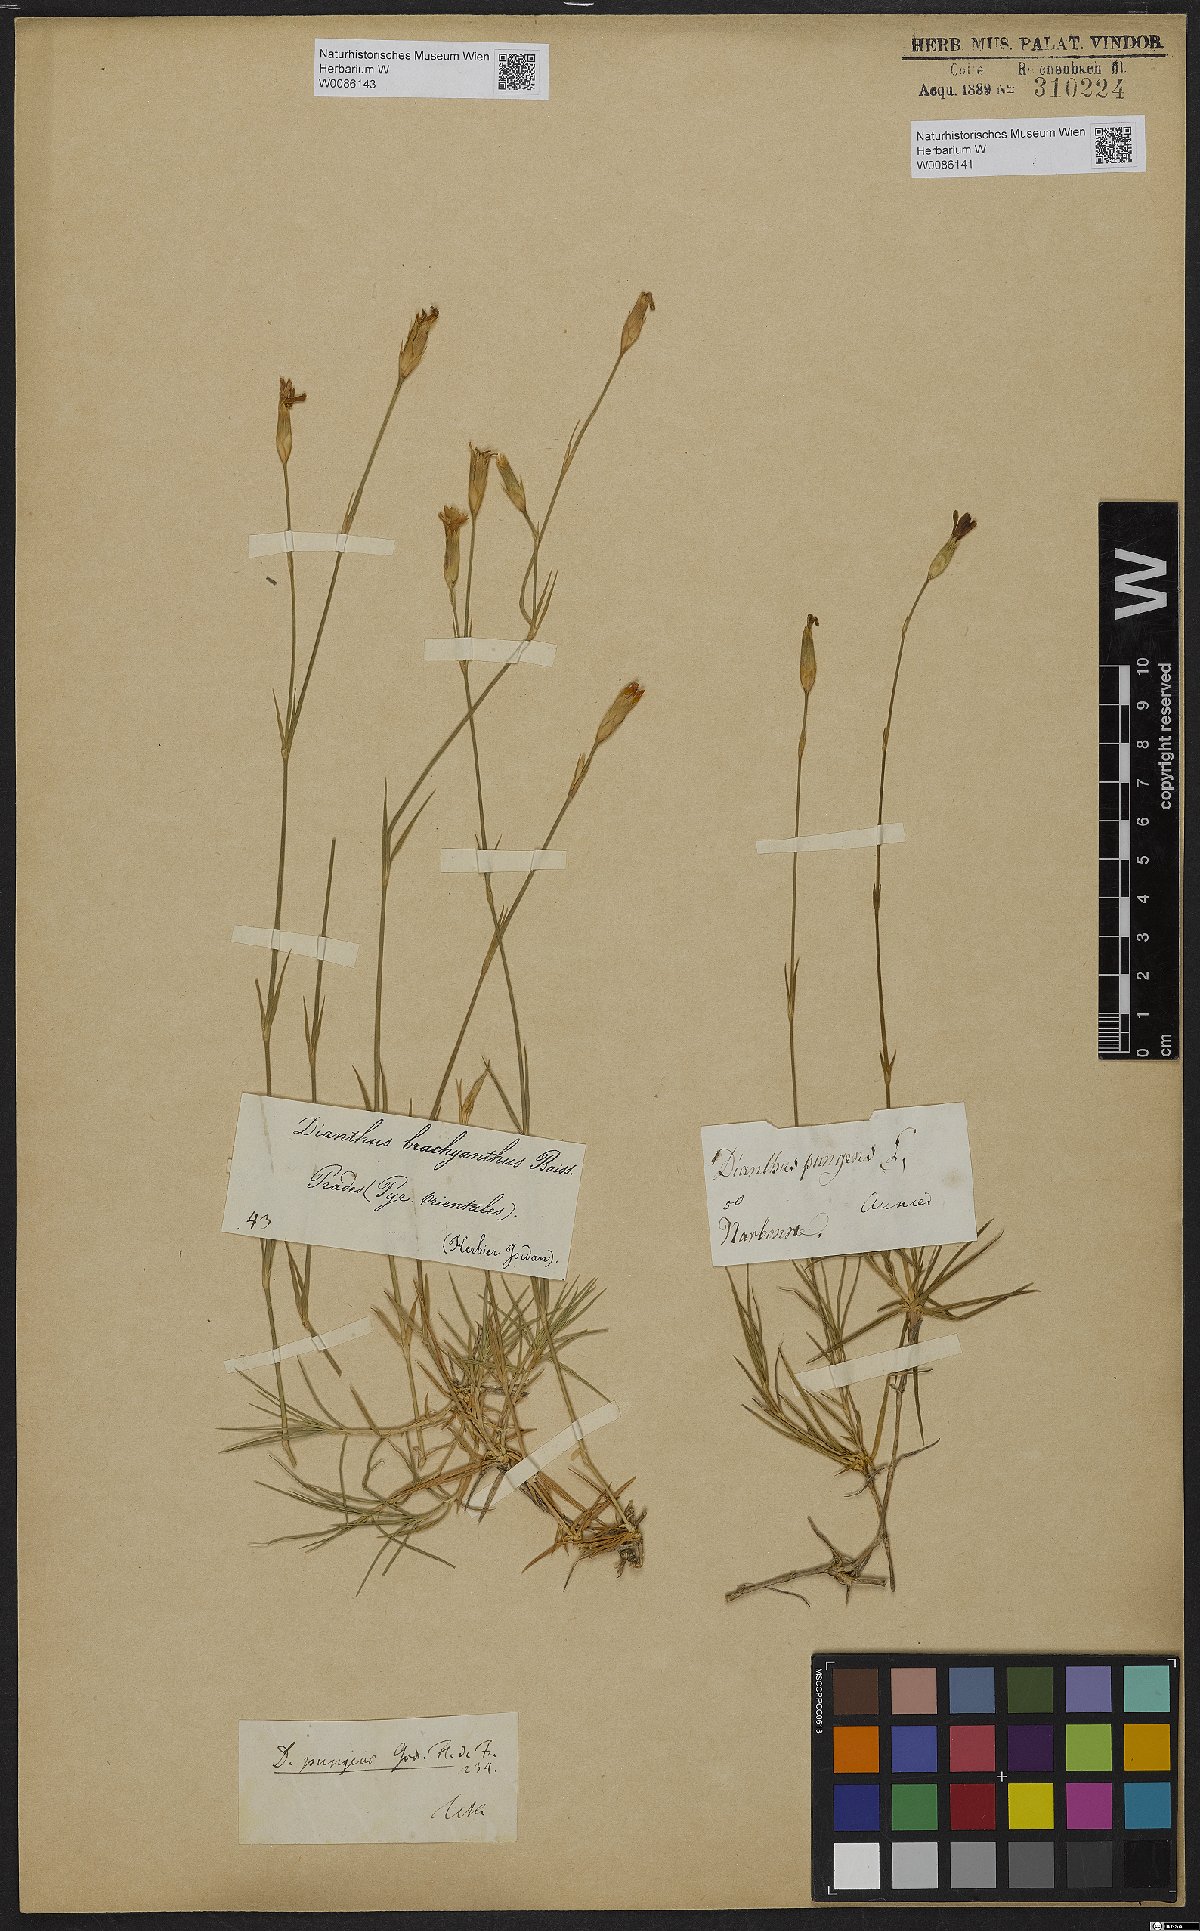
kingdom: Plantae
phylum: Tracheophyta
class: Magnoliopsida
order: Caryophyllales
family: Caryophyllaceae
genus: Dianthus
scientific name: Dianthus pungens
